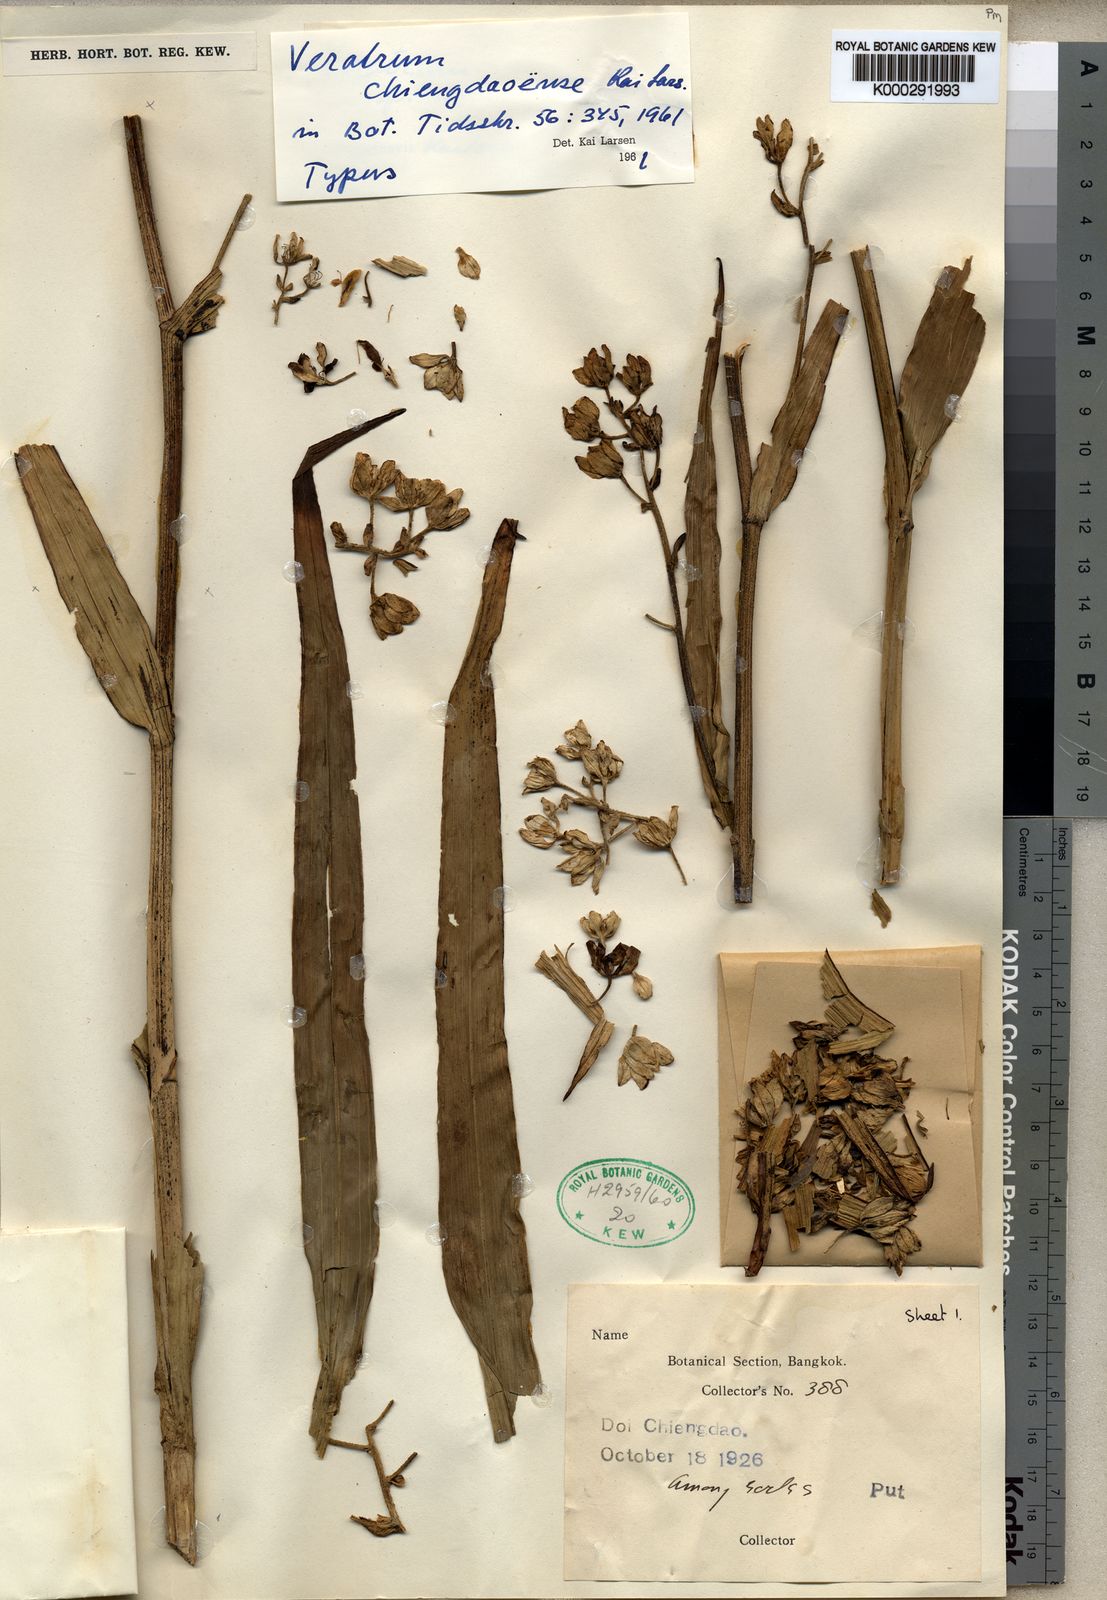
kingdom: Plantae
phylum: Tracheophyta
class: Liliopsida
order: Liliales
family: Melanthiaceae
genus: Veratrum
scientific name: Veratrum mengtzeanum
